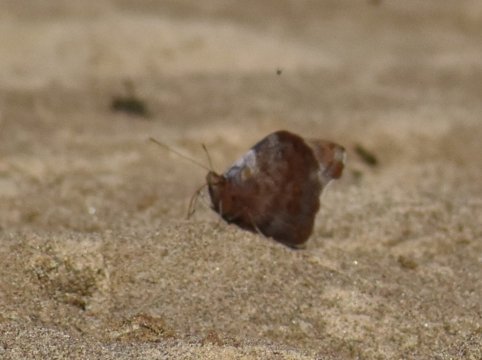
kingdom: Animalia
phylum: Arthropoda
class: Insecta
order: Lepidoptera
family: Nymphalidae
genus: Eunica
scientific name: Eunica
